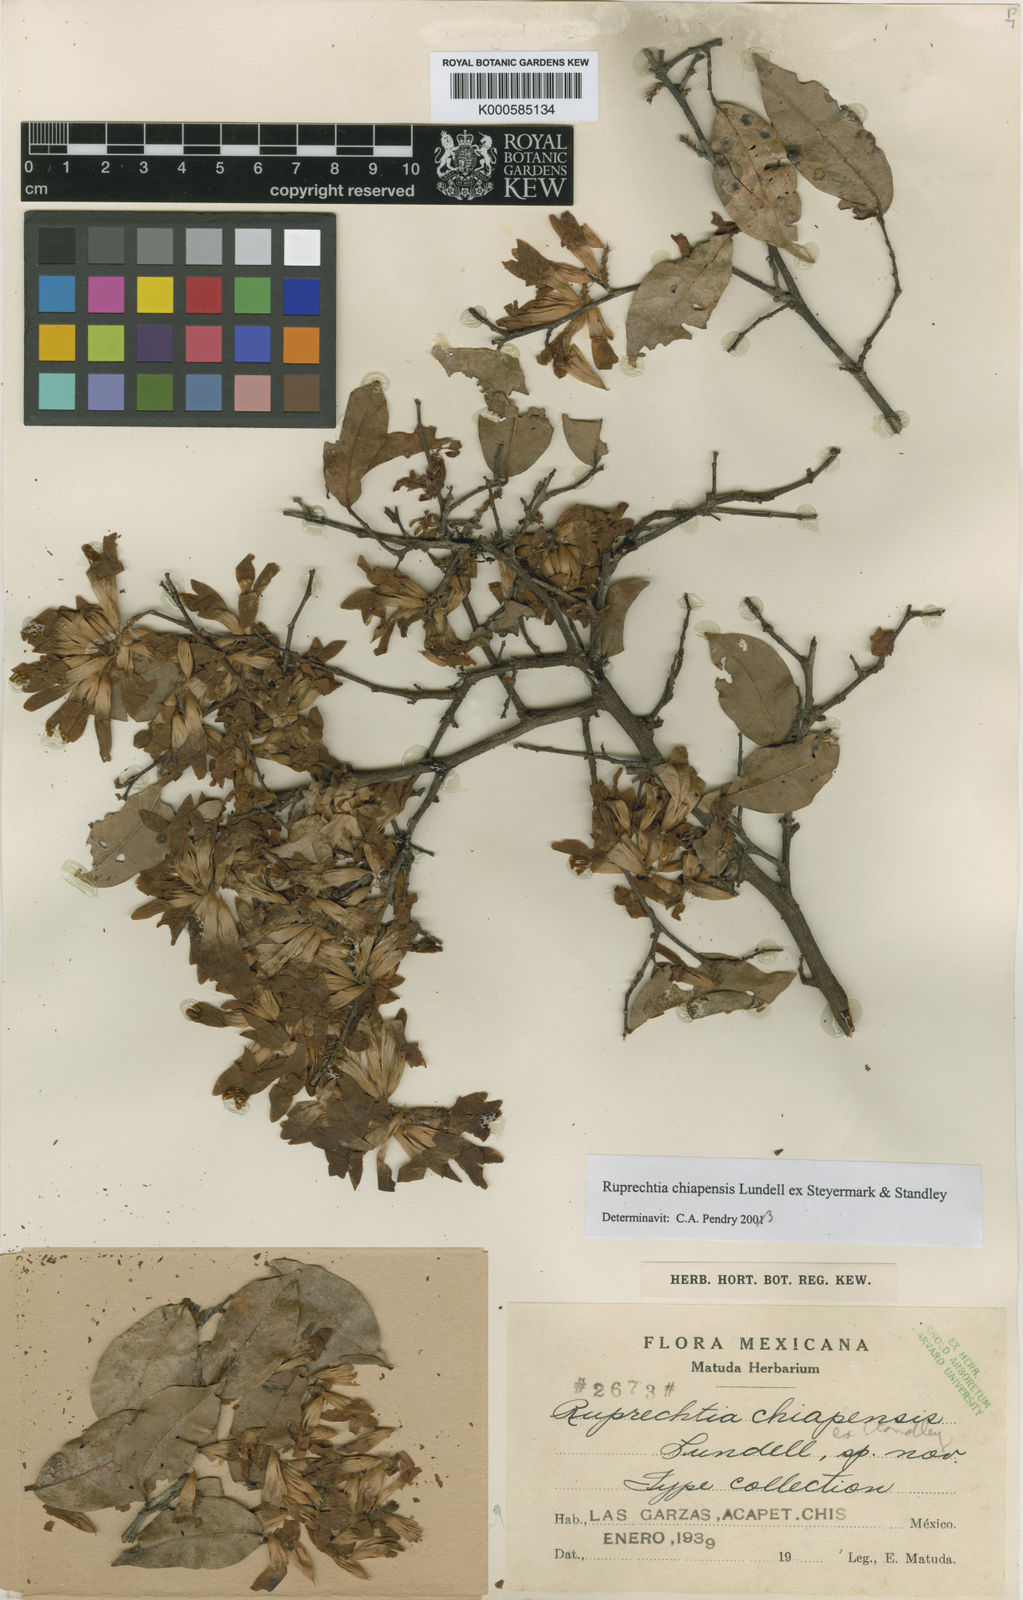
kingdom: Plantae
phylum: Tracheophyta
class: Magnoliopsida
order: Caryophyllales
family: Polygonaceae
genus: Ruprechtia
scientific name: Ruprechtia
